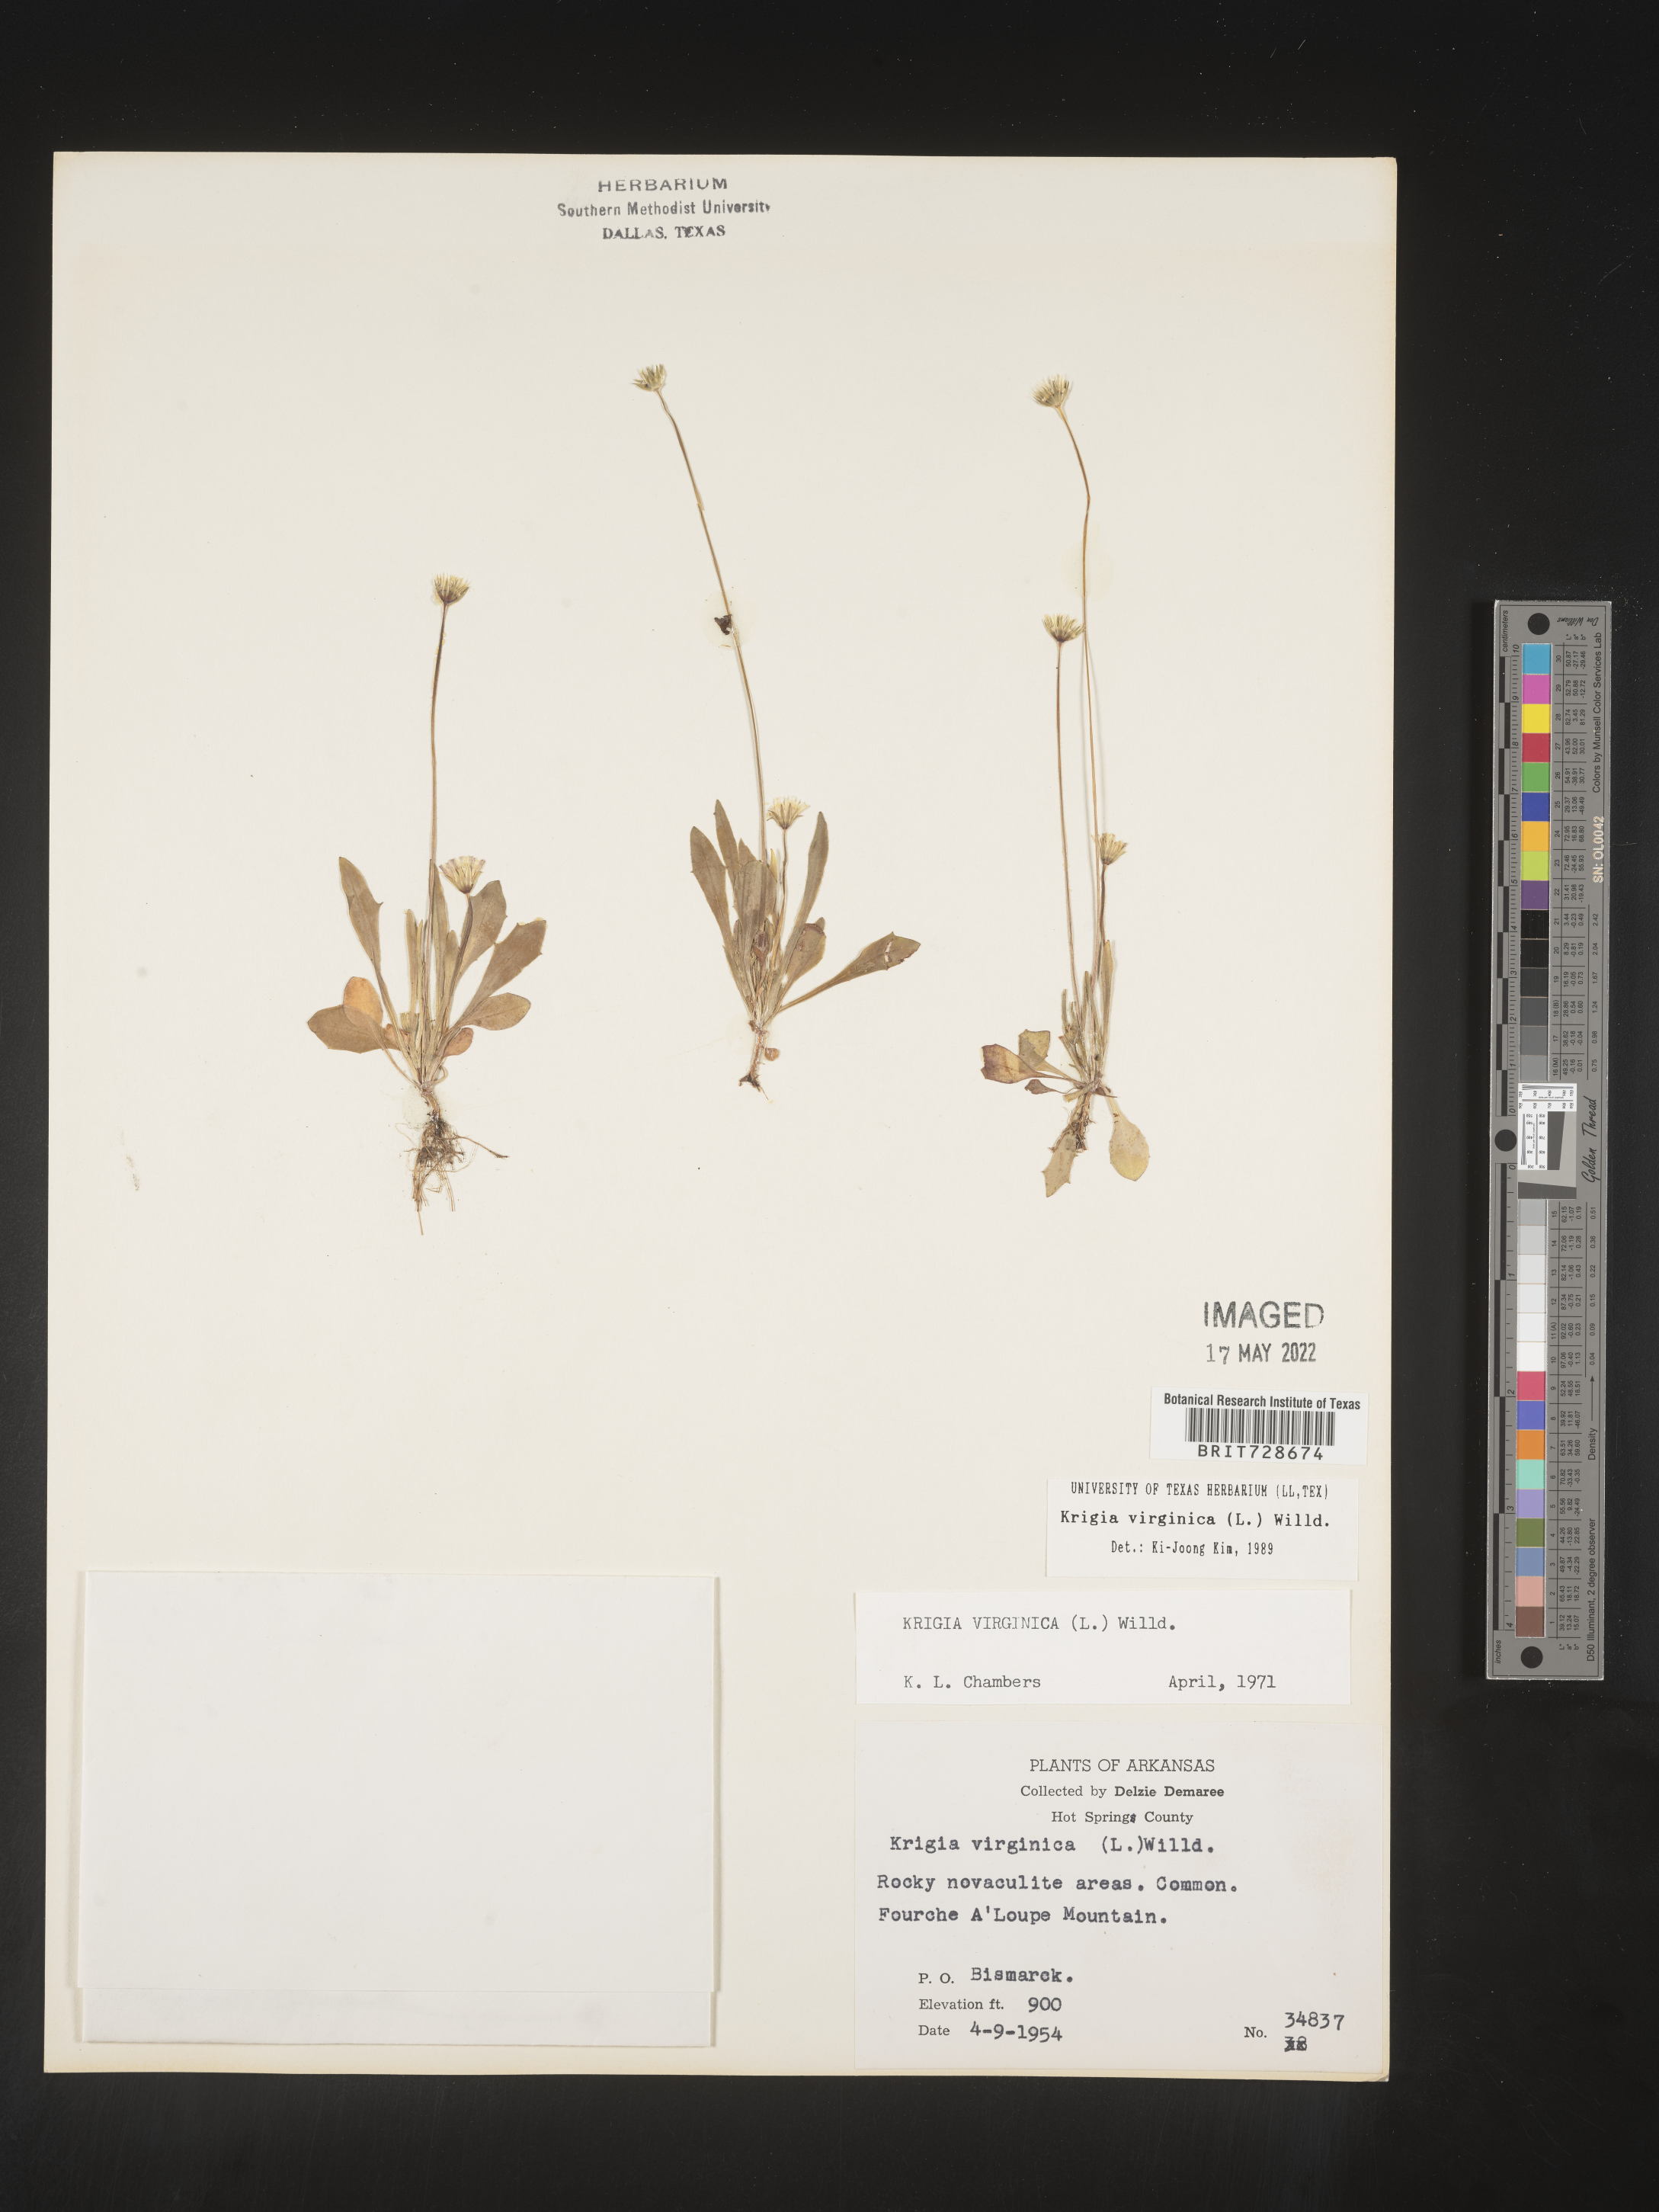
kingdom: Plantae
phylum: Tracheophyta
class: Magnoliopsida
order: Asterales
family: Asteraceae
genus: Krigia
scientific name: Krigia virginica
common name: Virginia dwarf-dandelion
